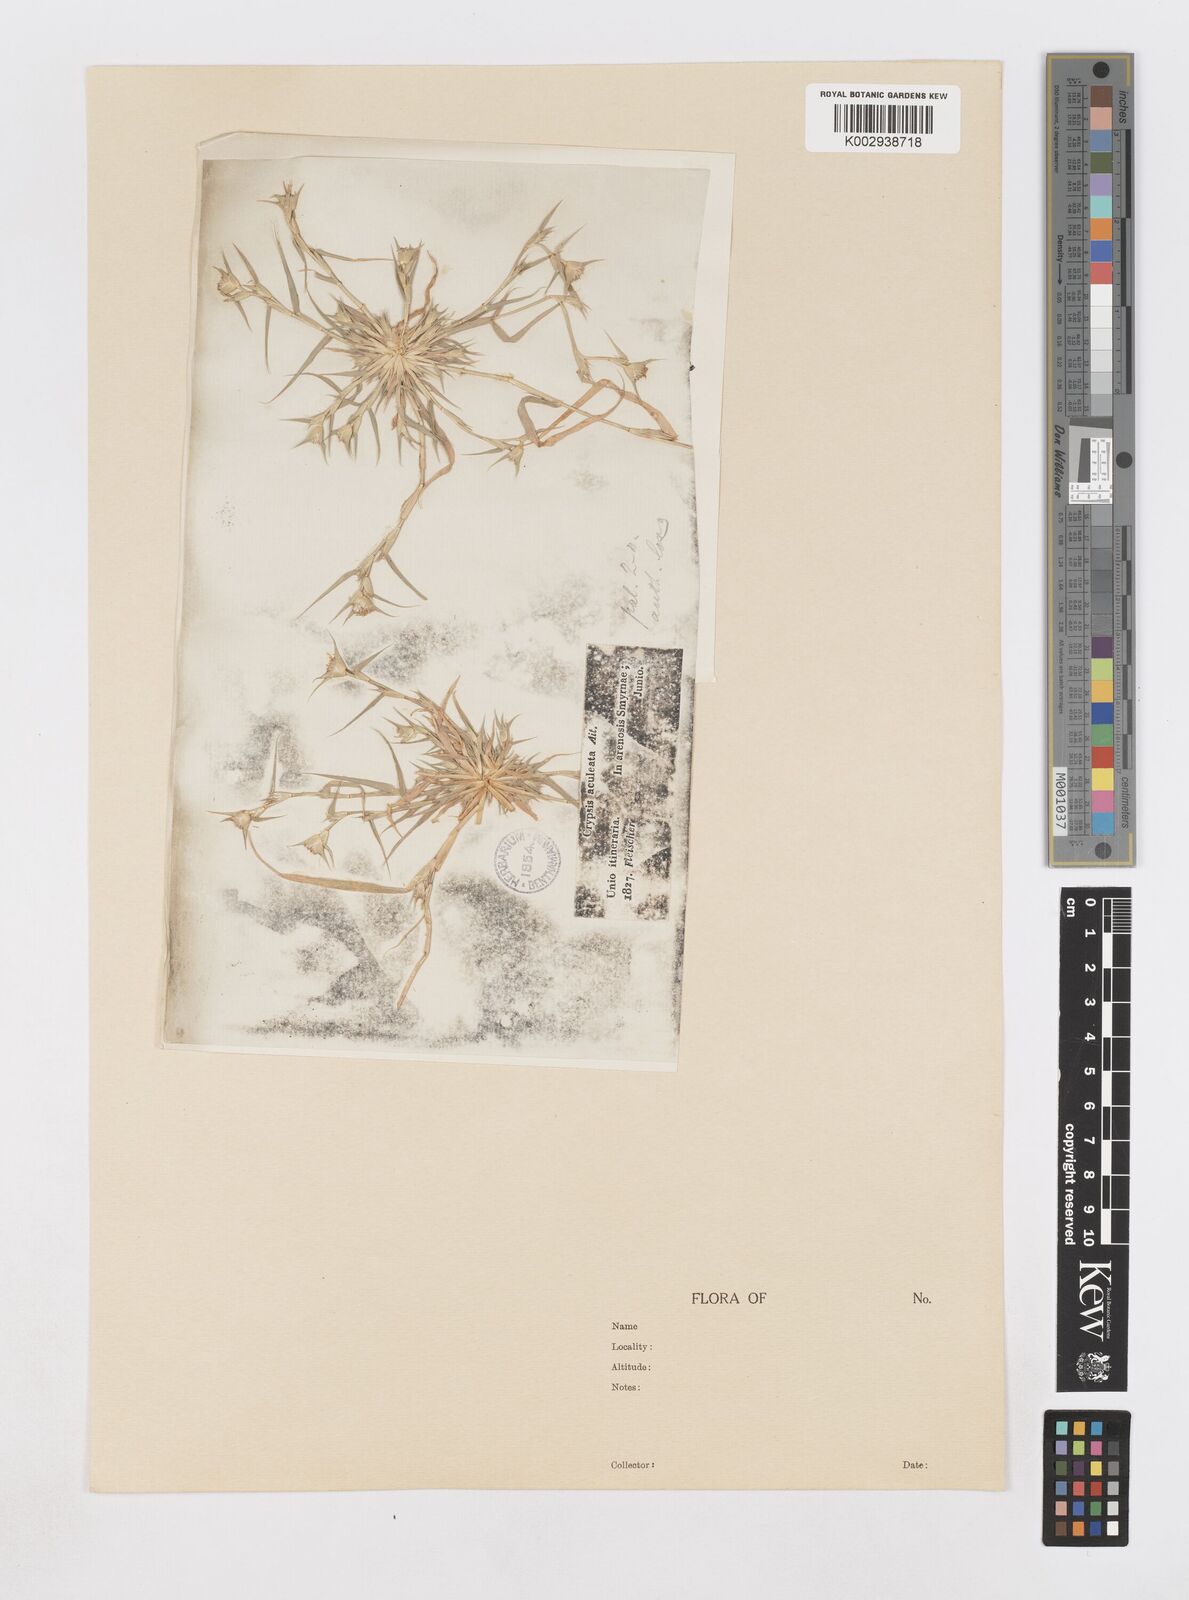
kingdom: Plantae
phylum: Tracheophyta
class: Liliopsida
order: Poales
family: Poaceae
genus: Sporobolus
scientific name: Sporobolus factorovskyi
